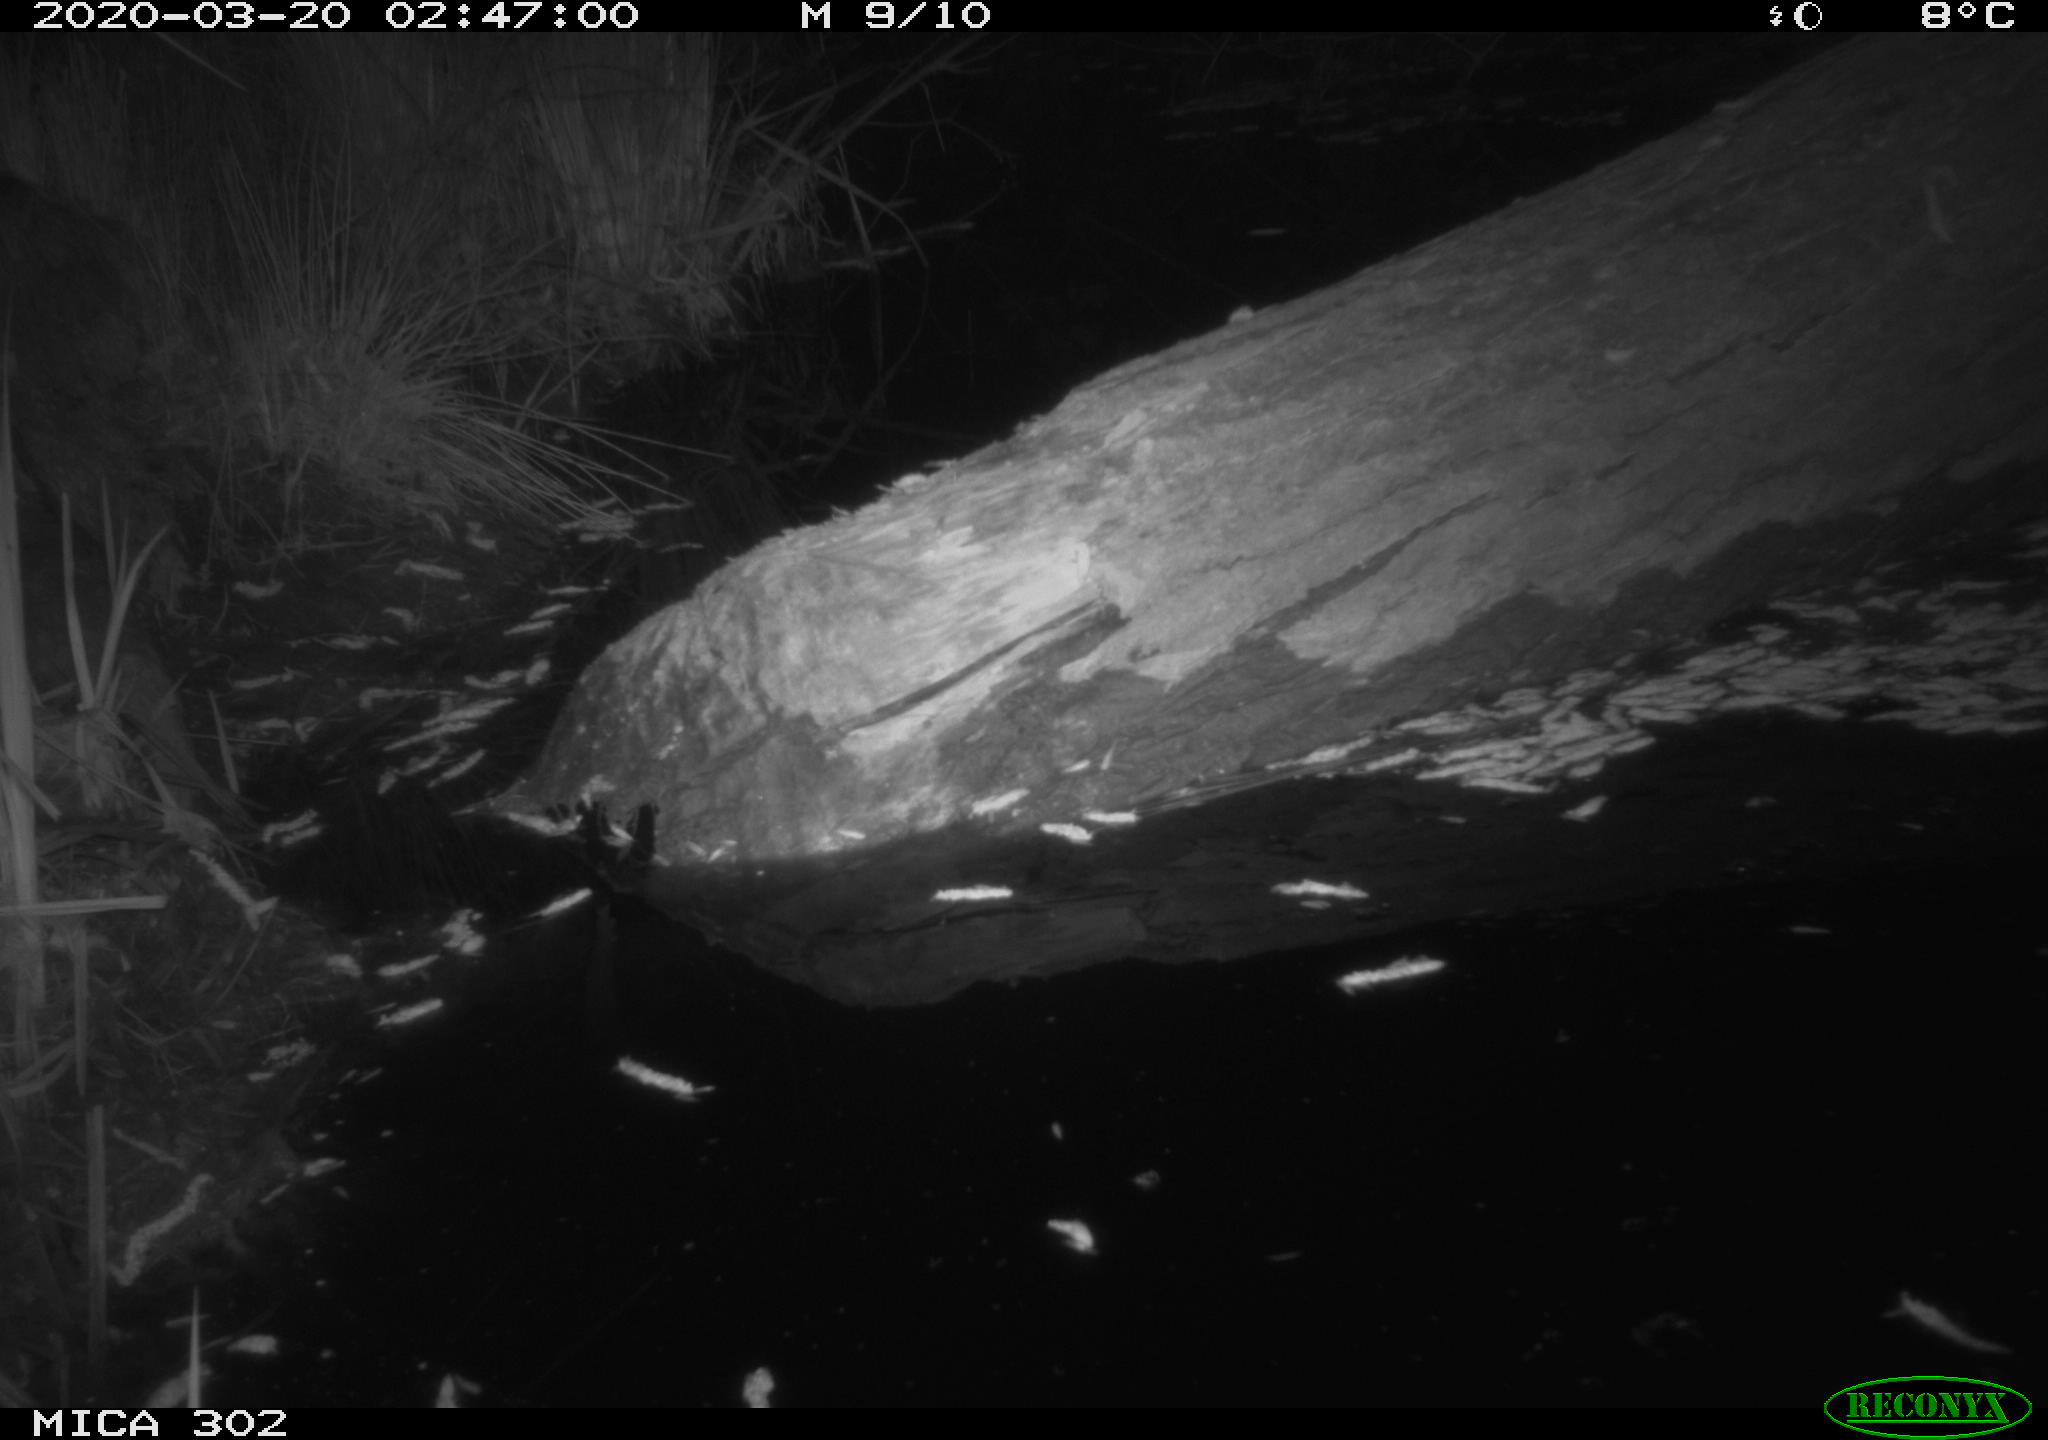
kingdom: Animalia
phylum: Chordata
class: Mammalia
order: Carnivora
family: Mustelidae
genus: Mustela
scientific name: Mustela putorius
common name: European polecat
